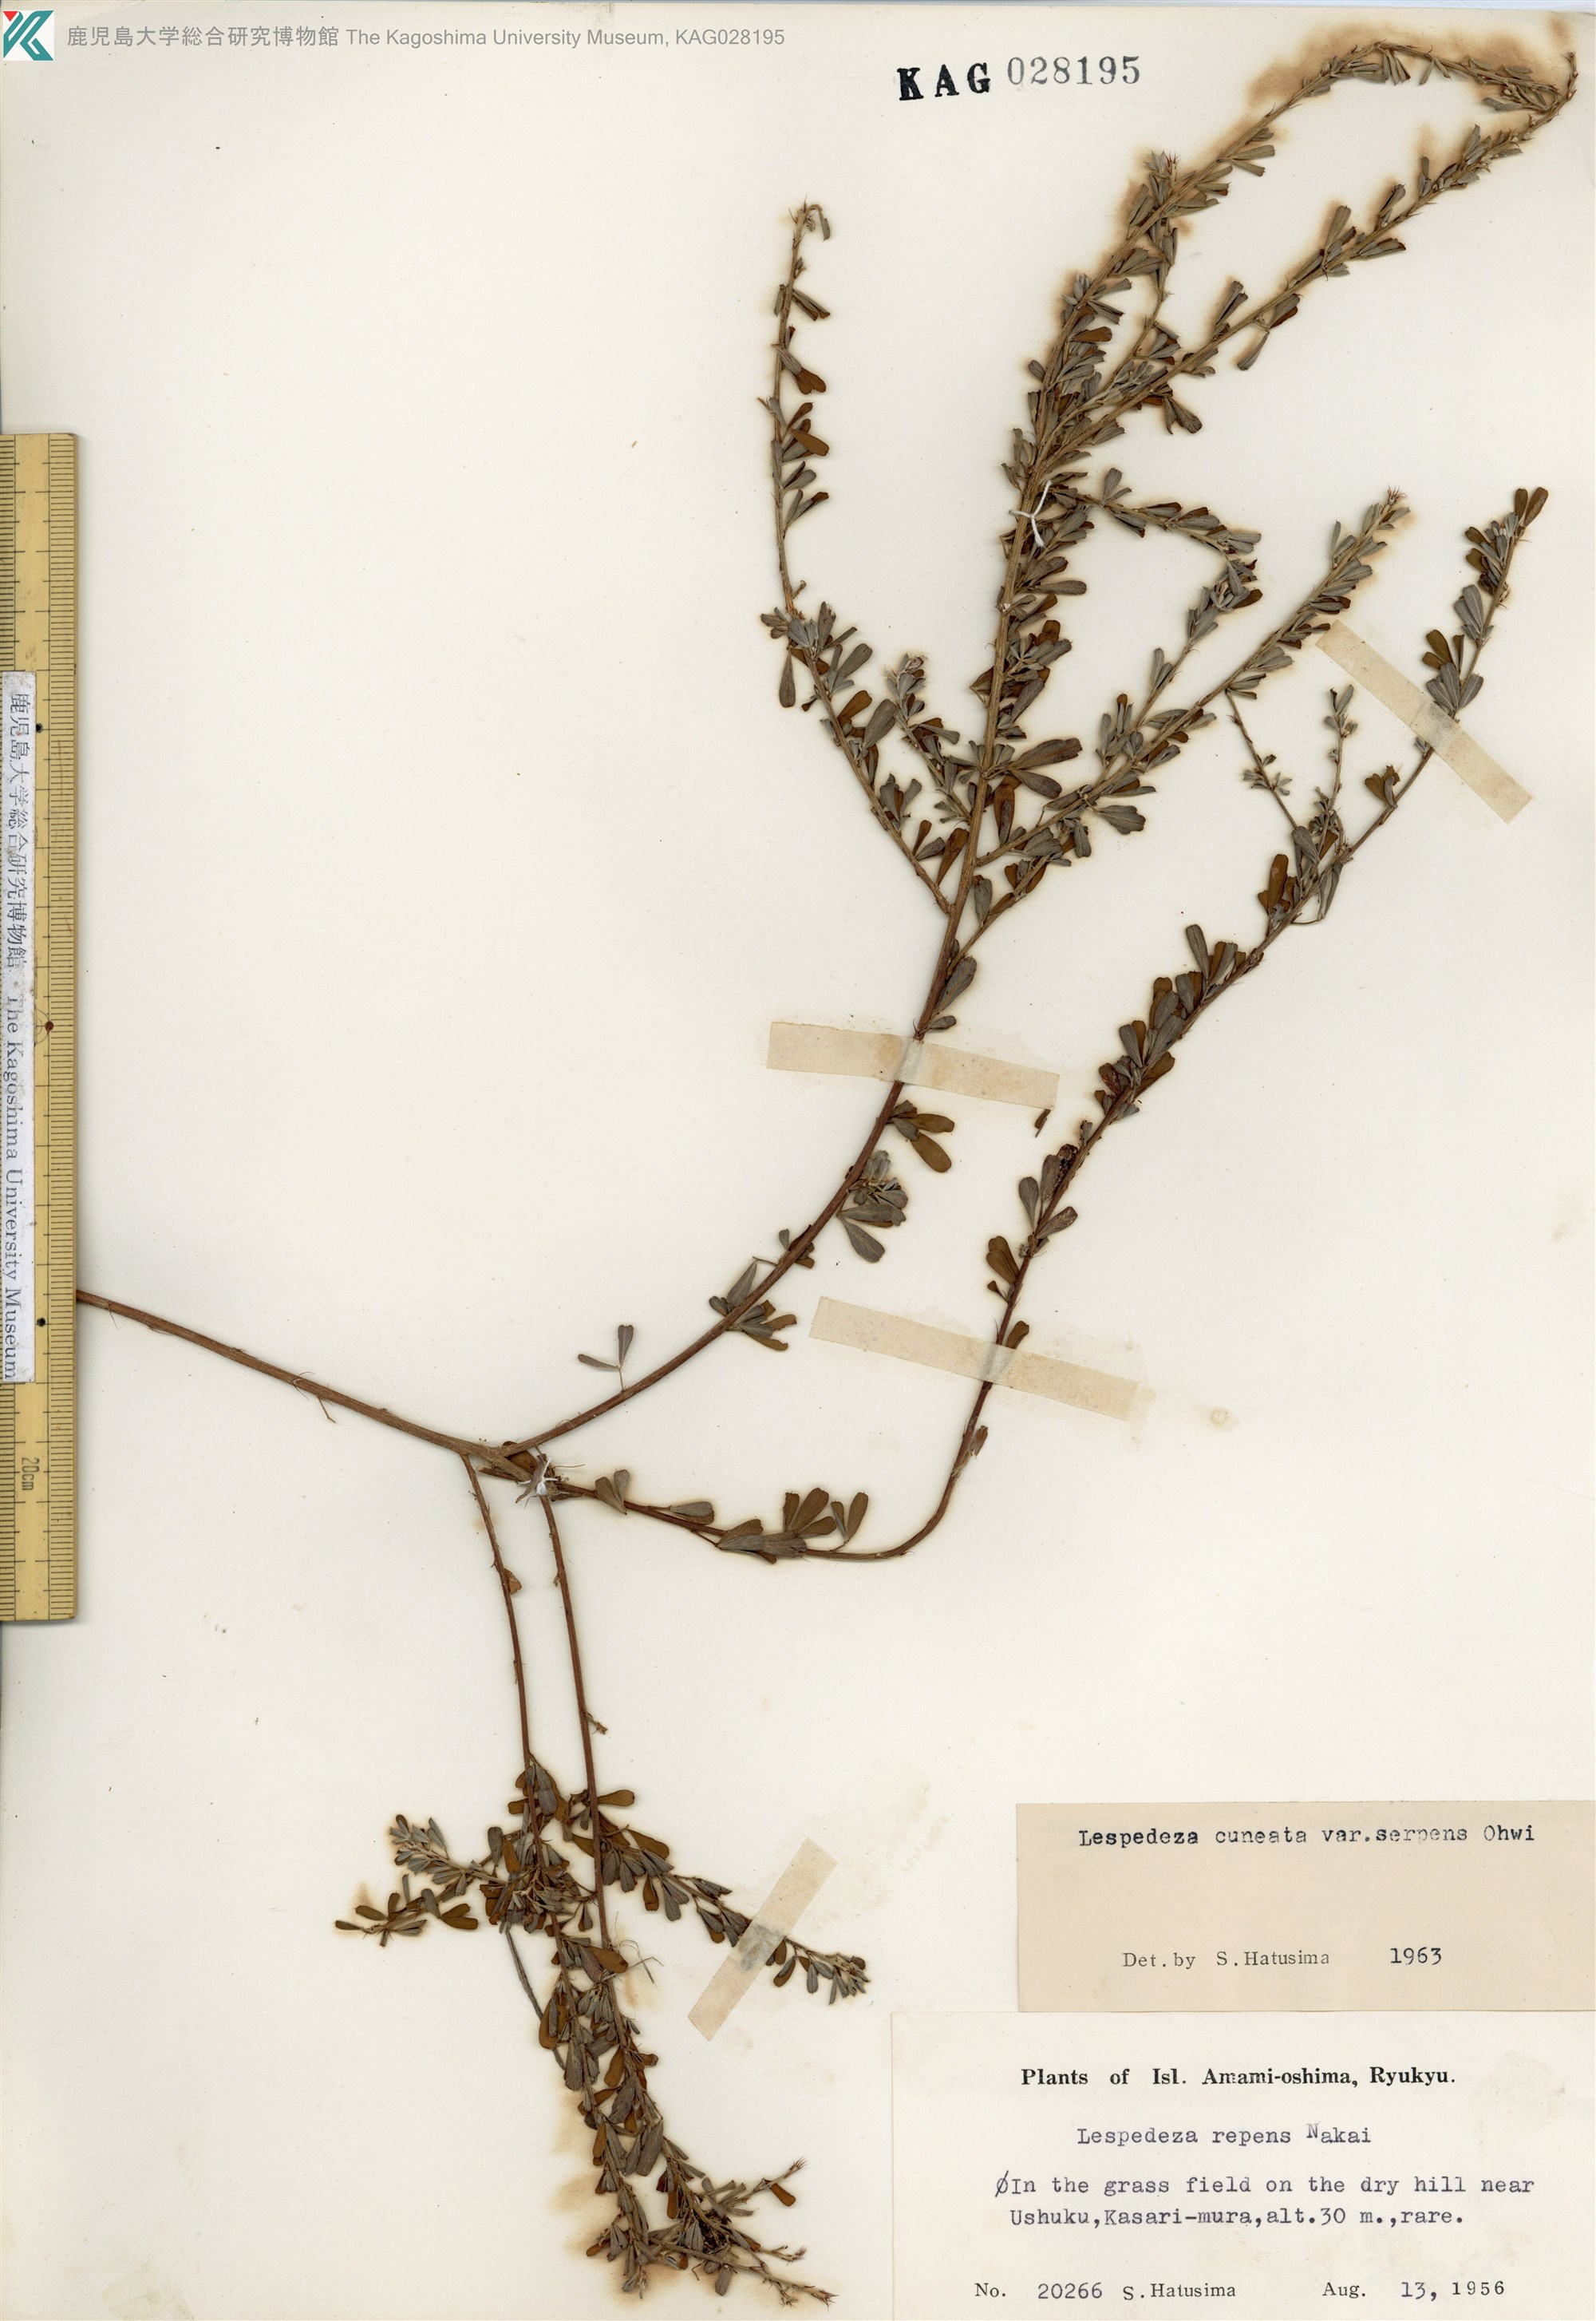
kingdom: Plantae
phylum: Tracheophyta
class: Magnoliopsida
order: Fabales
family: Fabaceae
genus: Lespedeza
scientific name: Lespedeza cuneata
